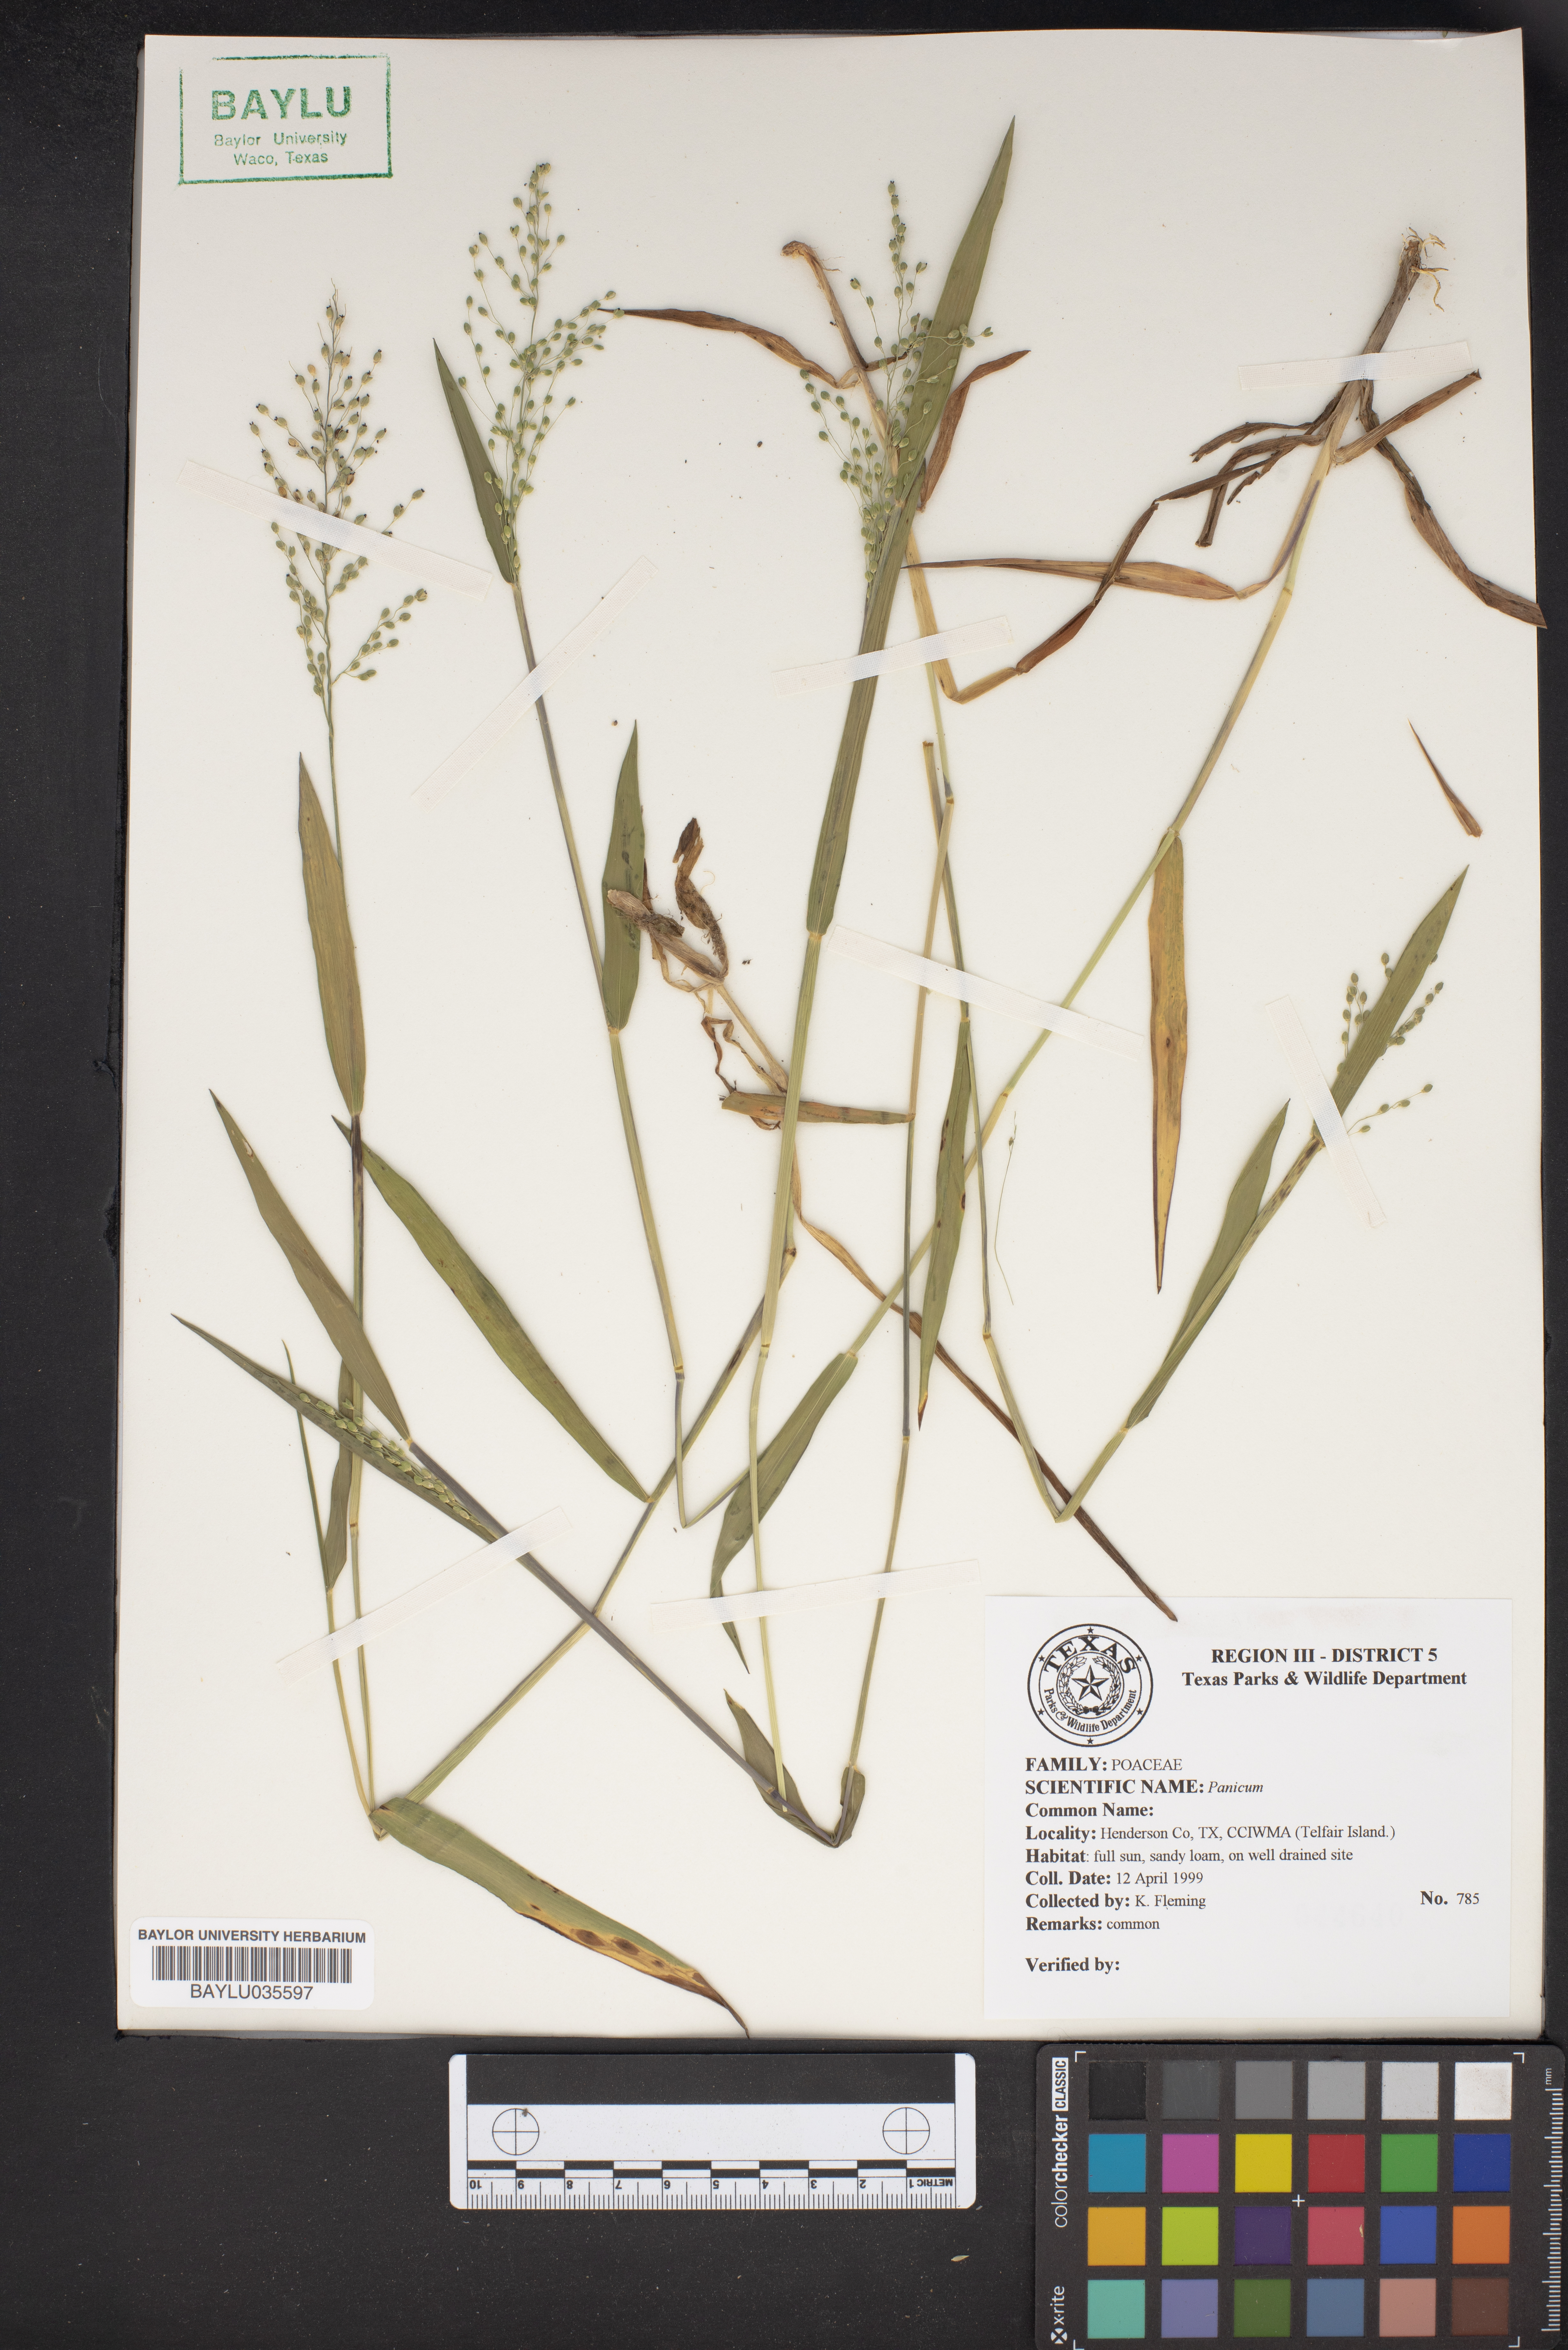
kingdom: Plantae
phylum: Tracheophyta
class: Liliopsida
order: Poales
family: Poaceae
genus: Panicum
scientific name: Panicum
